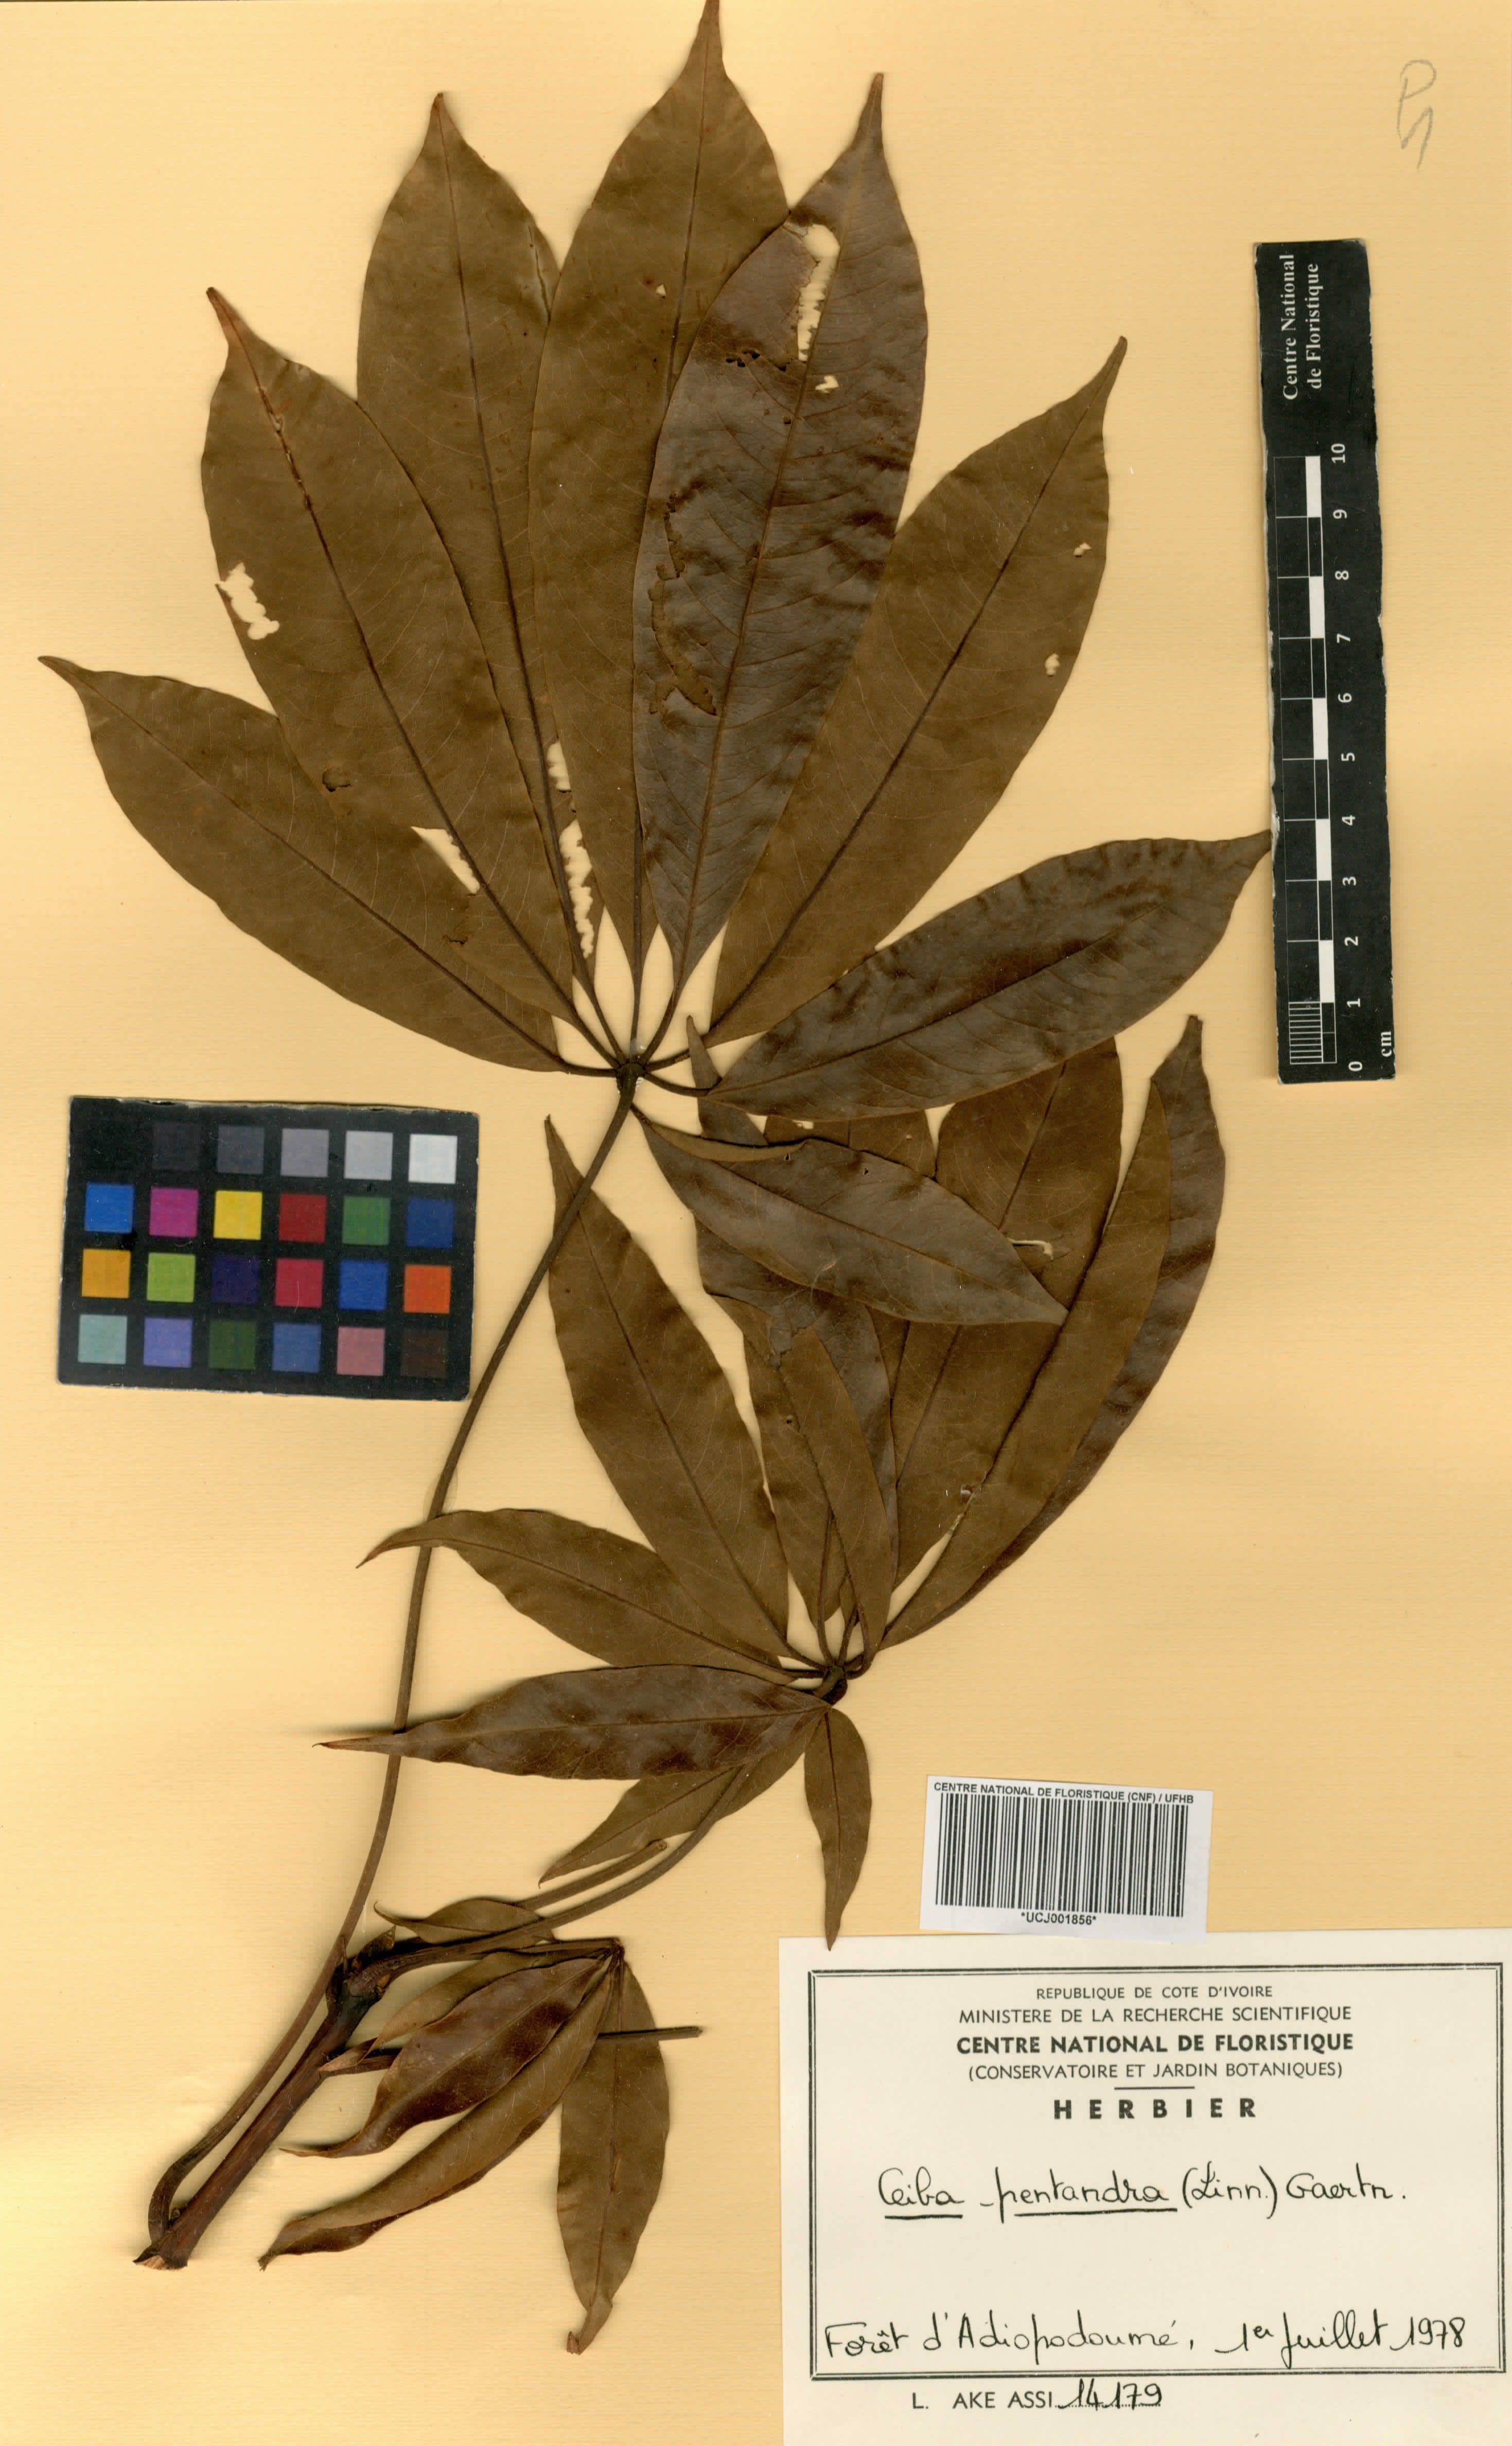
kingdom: Plantae
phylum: Tracheophyta
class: Magnoliopsida
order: Malvales
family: Malvaceae
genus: Ceiba
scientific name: Ceiba pentandra
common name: Kapok
